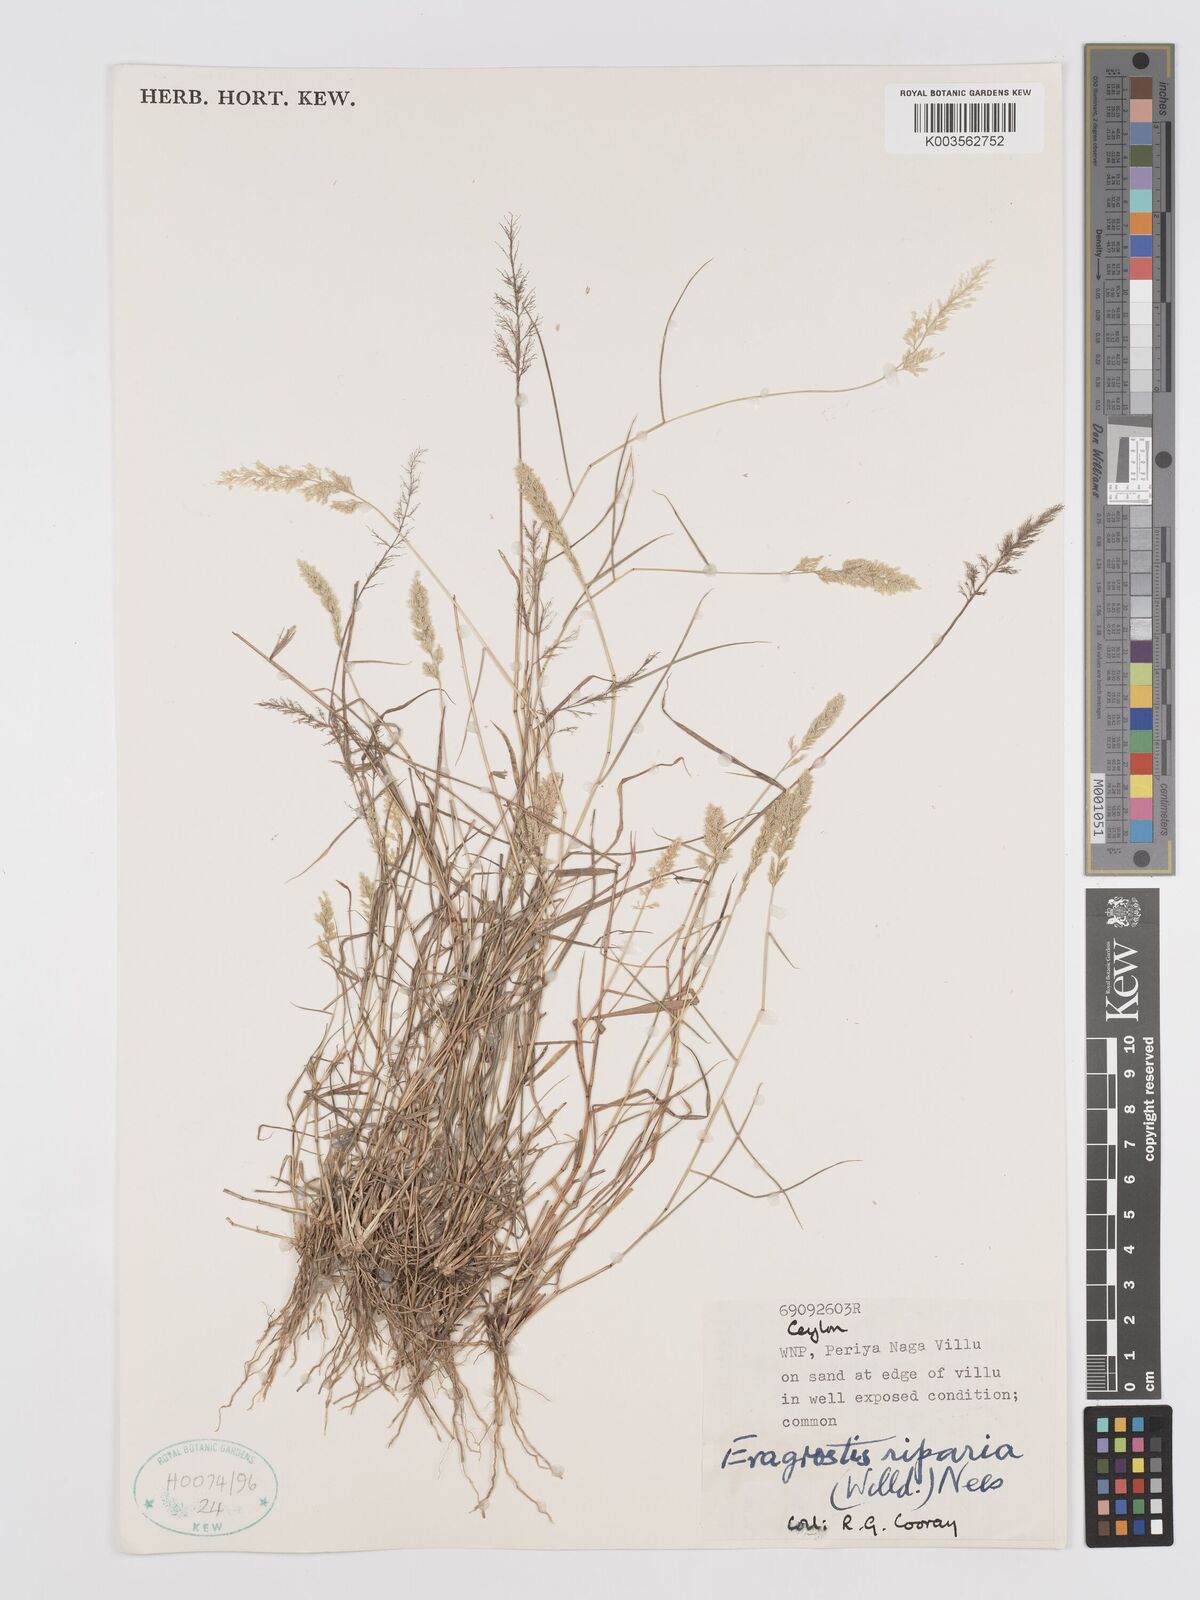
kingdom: Plantae
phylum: Tracheophyta
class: Liliopsida
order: Poales
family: Poaceae
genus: Eragrostis
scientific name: Eragrostis riparia
